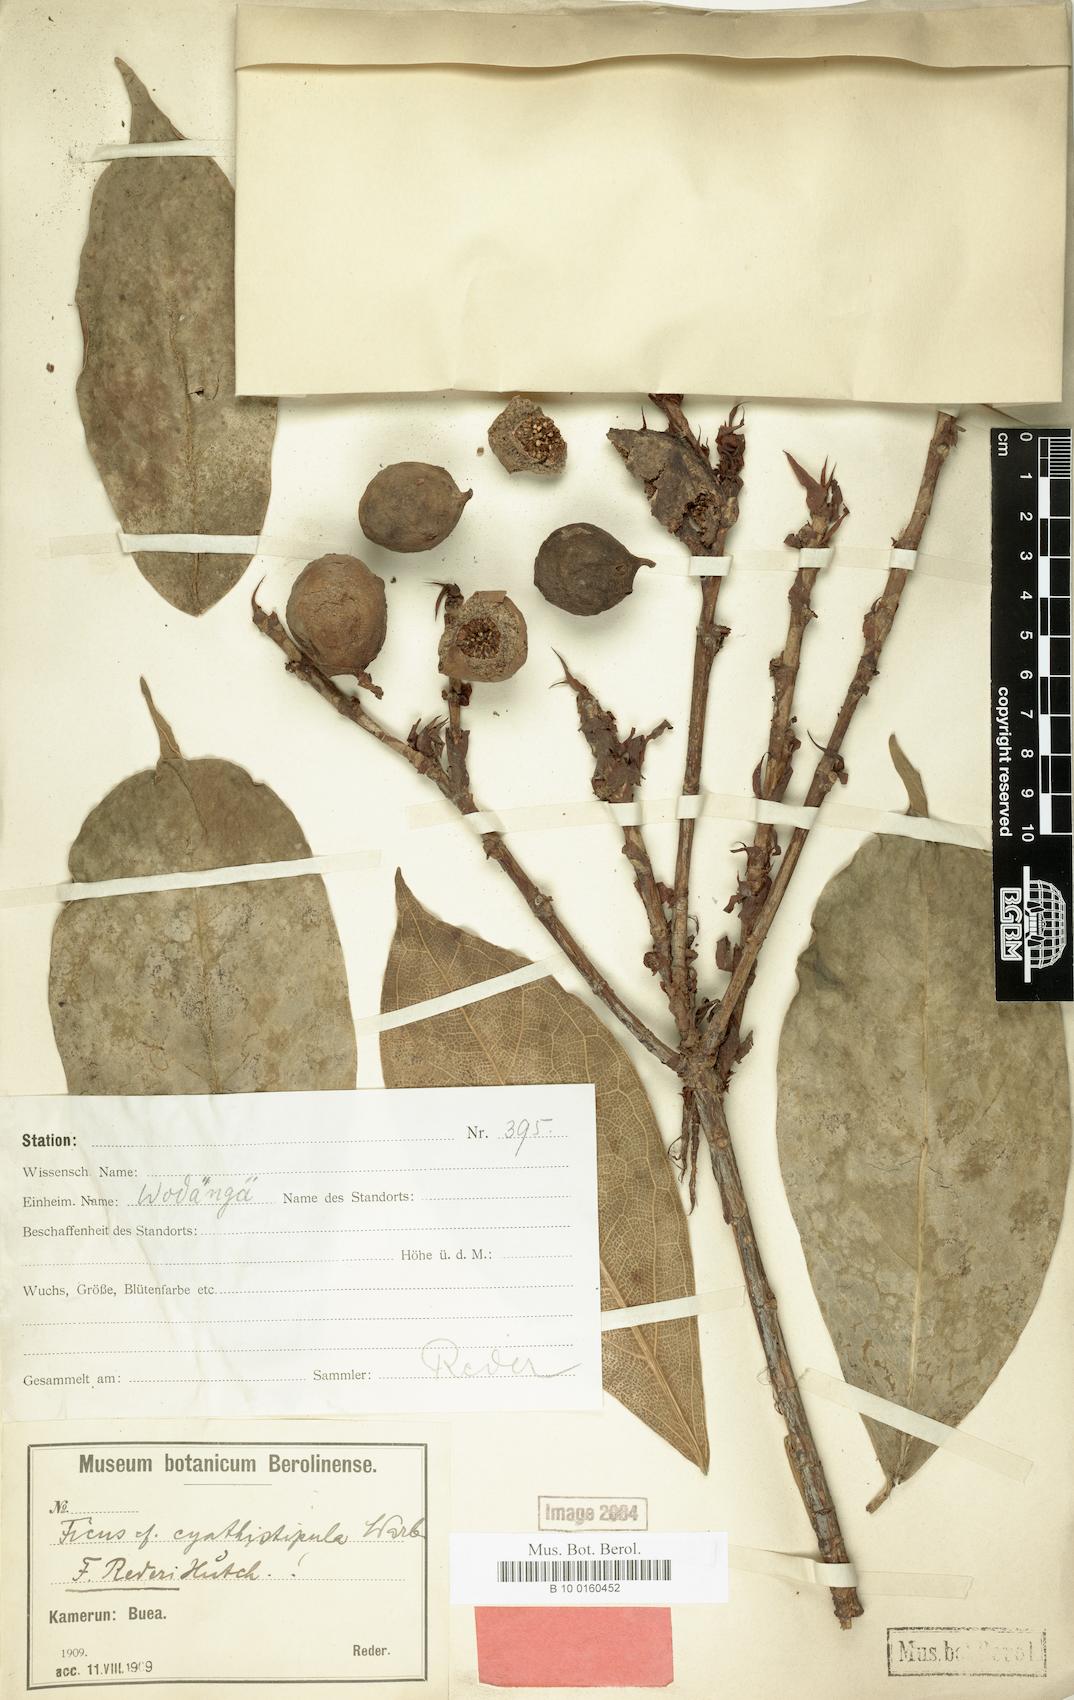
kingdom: Plantae
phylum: Tracheophyta
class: Magnoliopsida
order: Rosales
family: Moraceae
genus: Ficus
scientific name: Ficus cyathistipula
